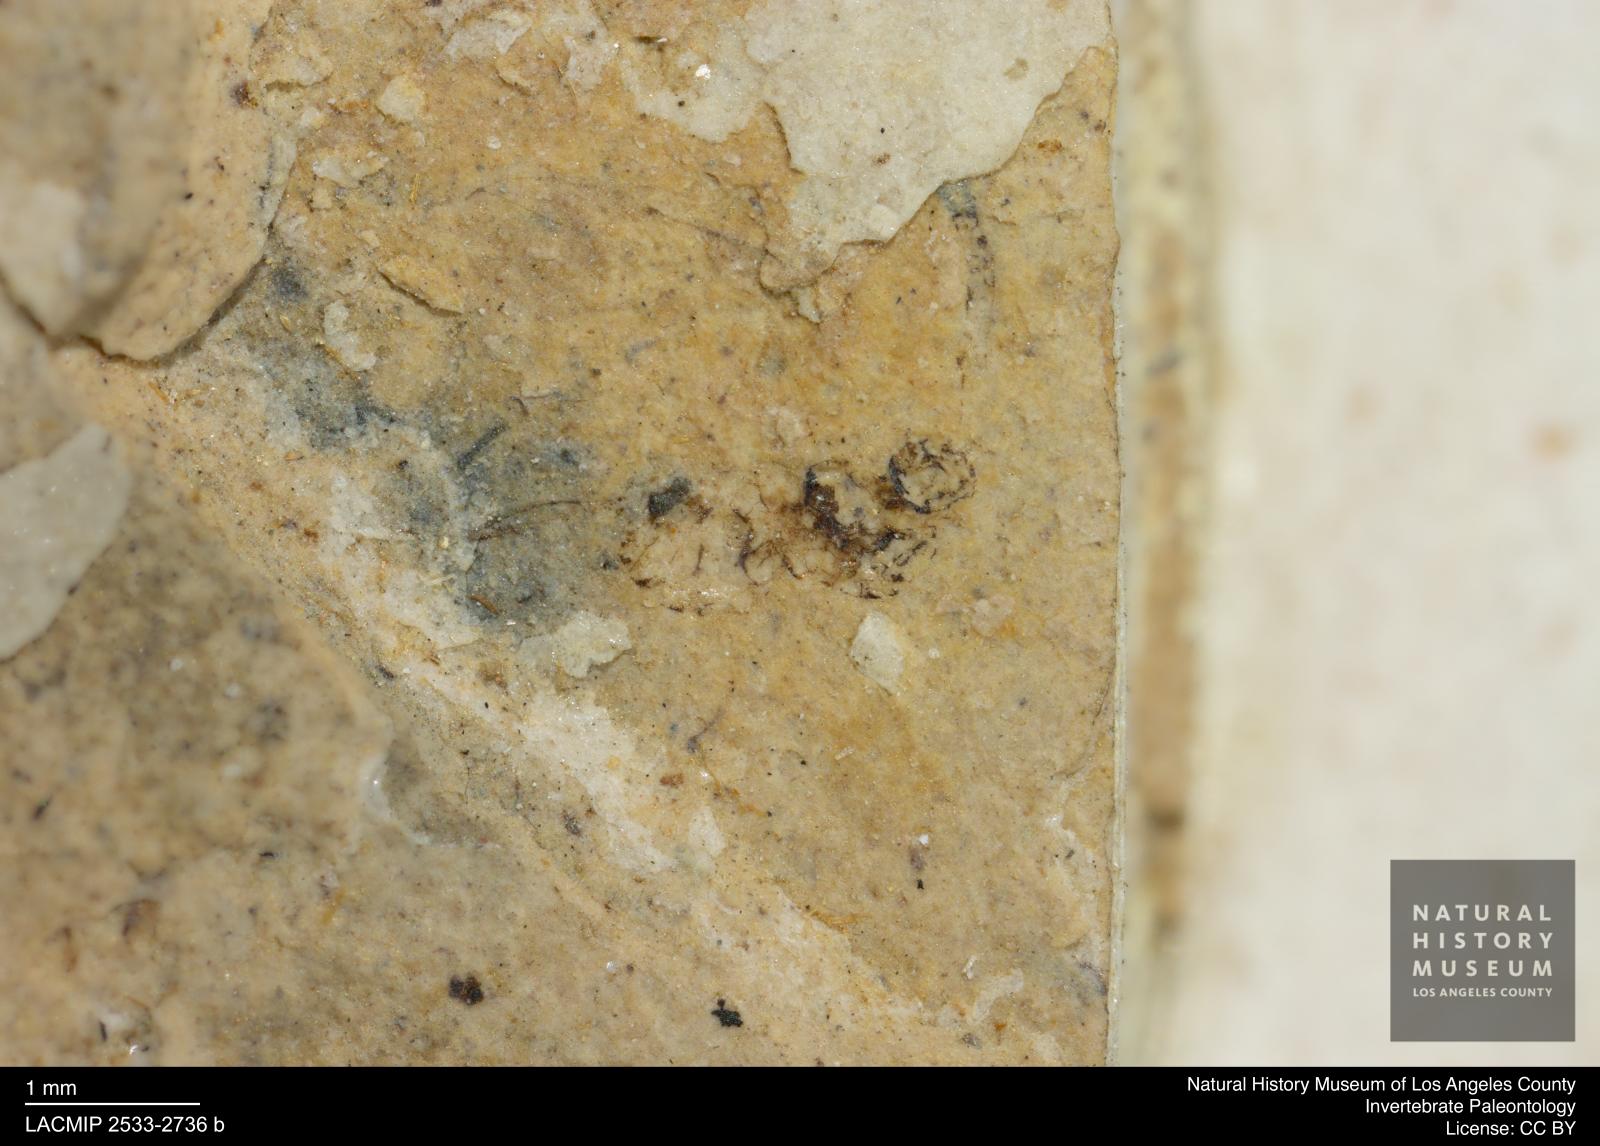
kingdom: Animalia
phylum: Arthropoda
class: Insecta
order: Hymenoptera
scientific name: Hymenoptera
